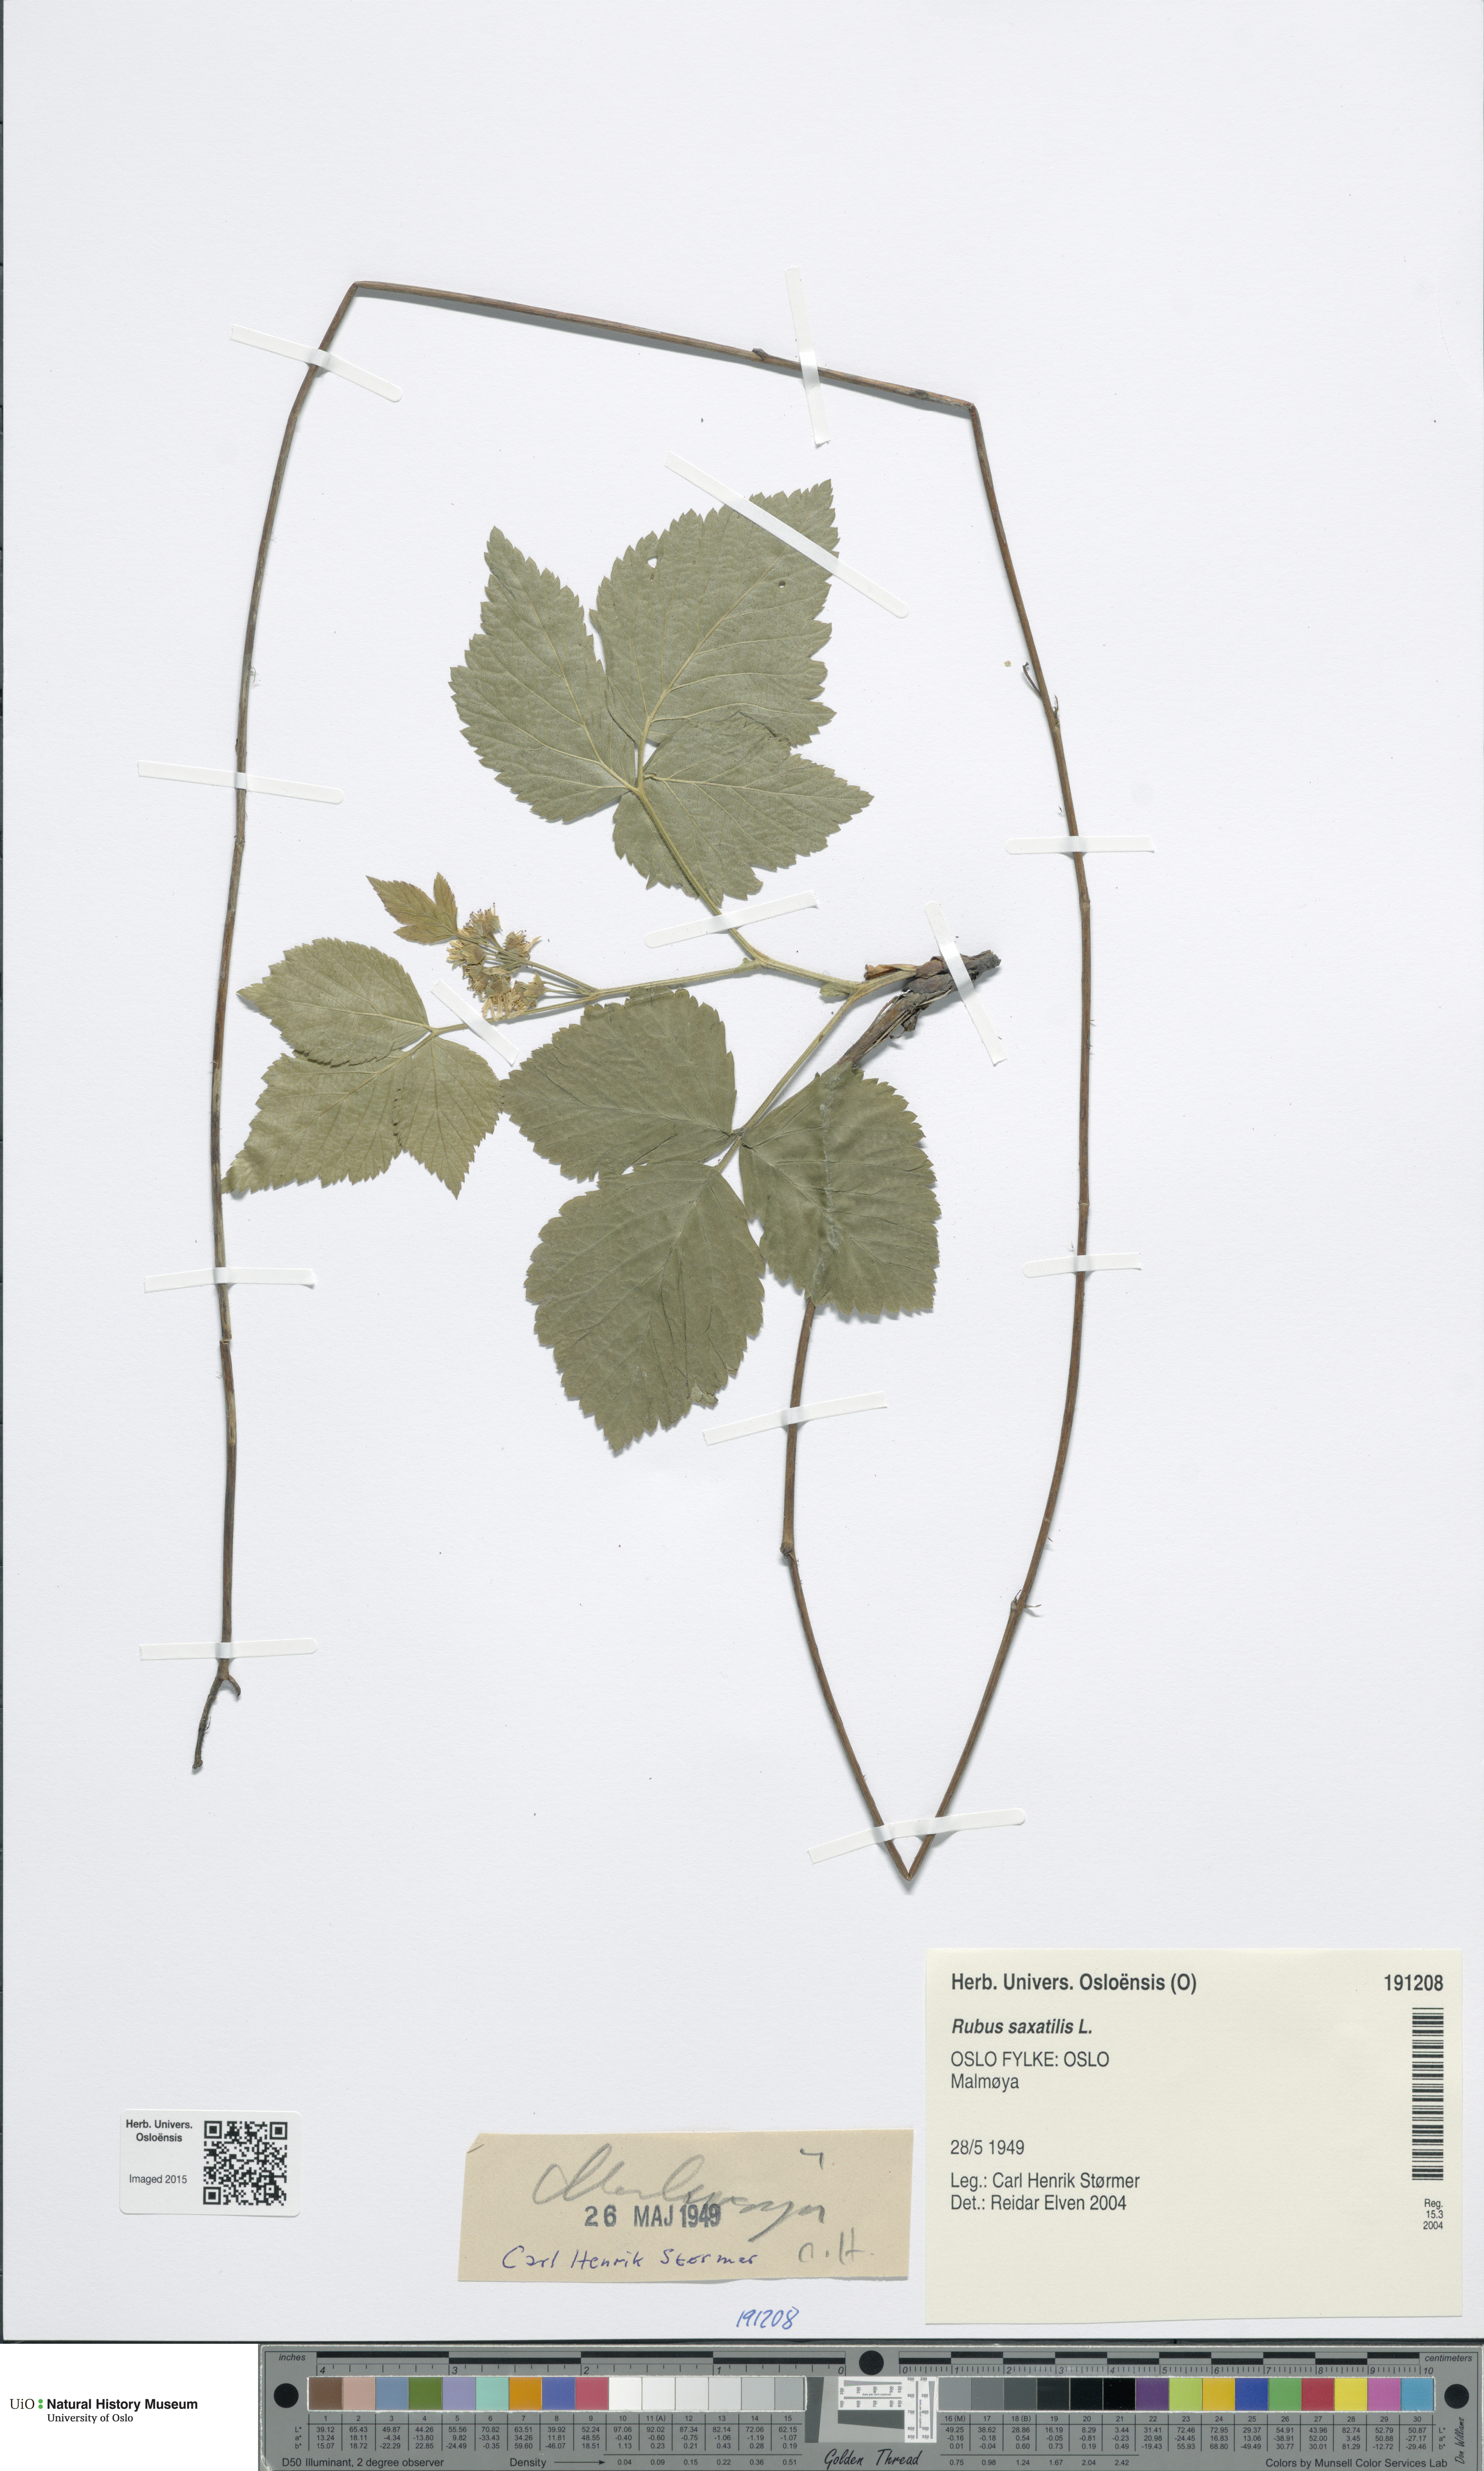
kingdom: Plantae
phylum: Tracheophyta
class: Magnoliopsida
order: Rosales
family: Rosaceae
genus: Rubus
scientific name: Rubus saxatilis
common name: Stone bramble
